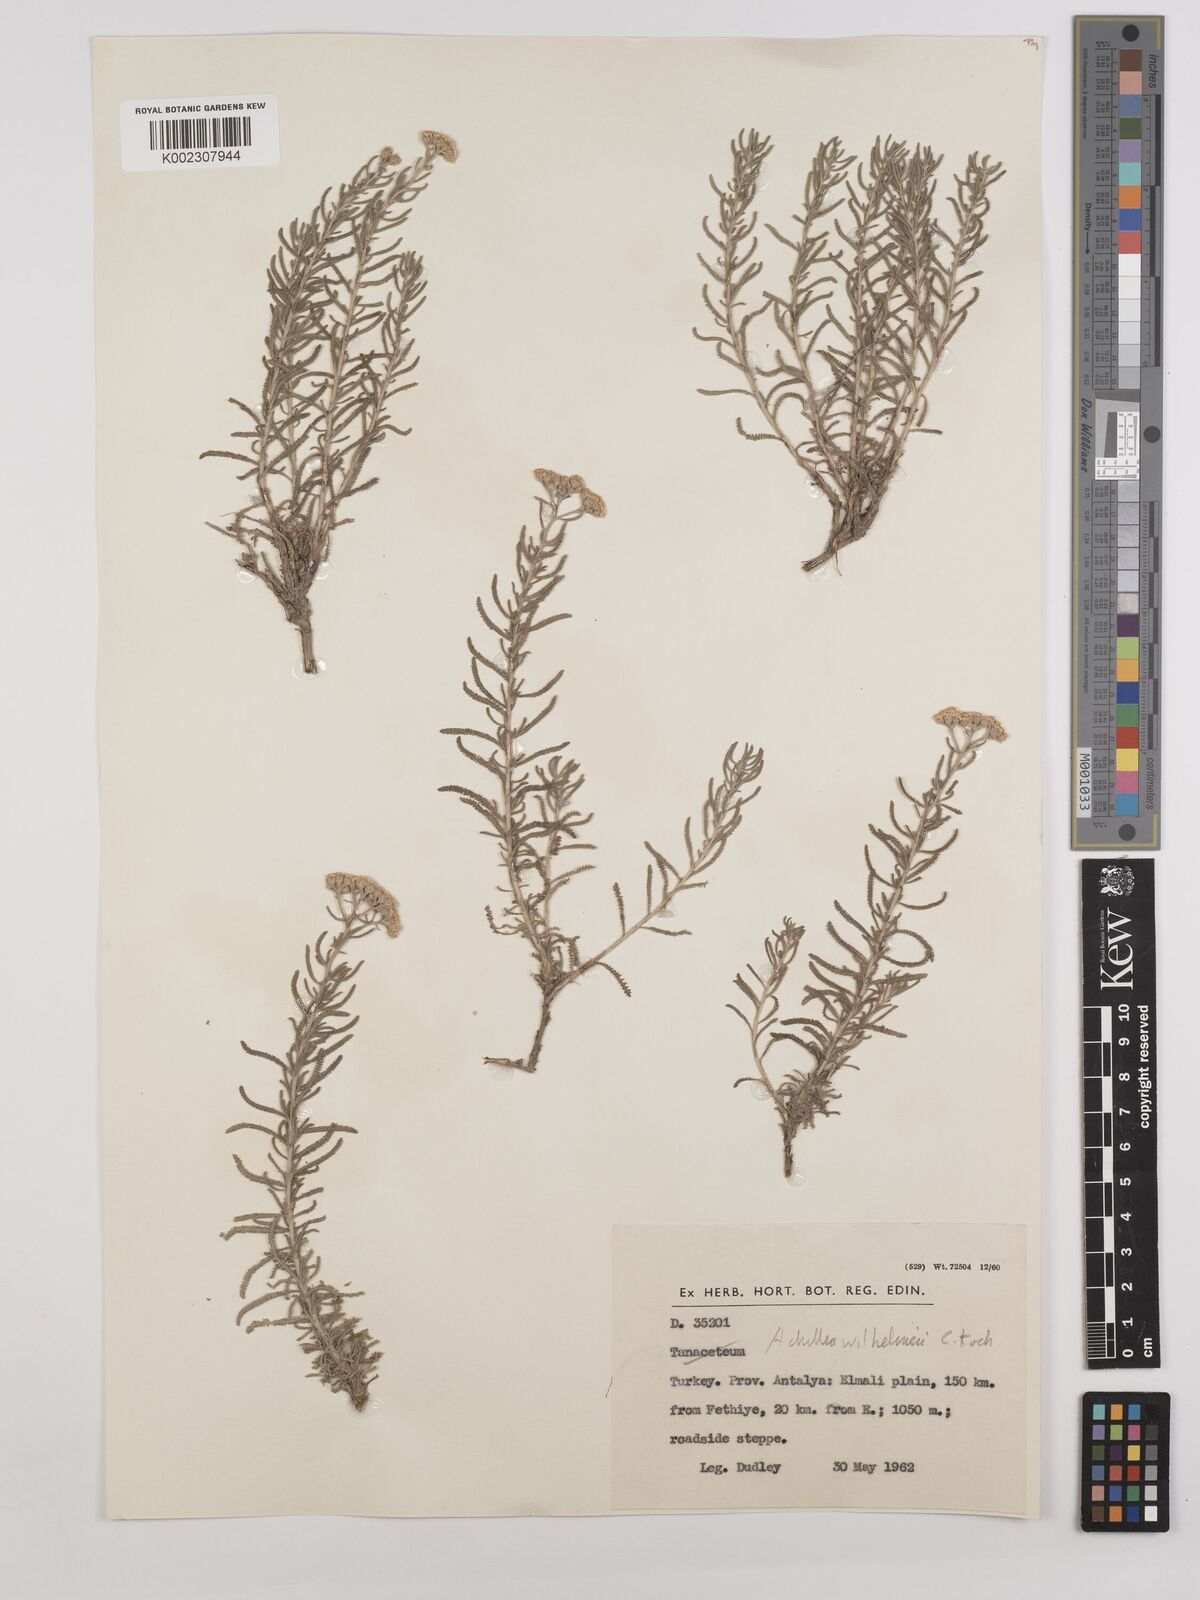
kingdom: Plantae
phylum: Tracheophyta
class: Magnoliopsida
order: Asterales
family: Asteraceae
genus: Achillea
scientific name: Achillea tenuifolia
